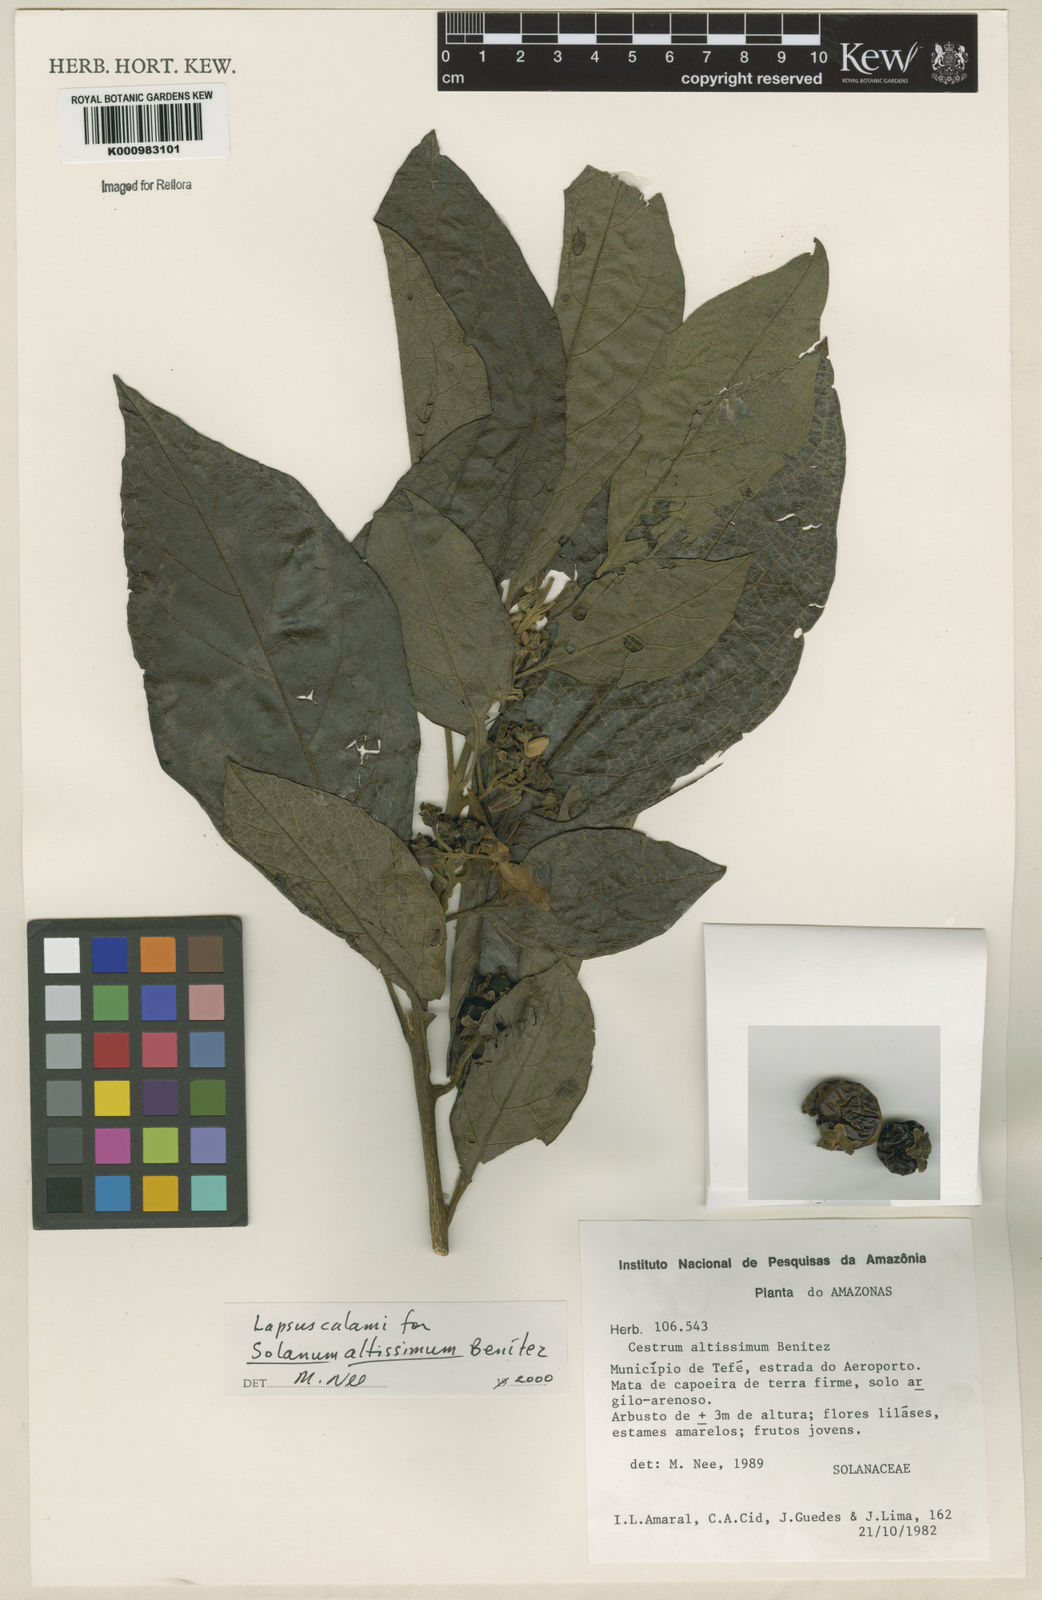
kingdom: Plantae
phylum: Tracheophyta
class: Magnoliopsida
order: Solanales
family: Solanaceae
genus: Solanum
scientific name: Solanum kioniotrichum
